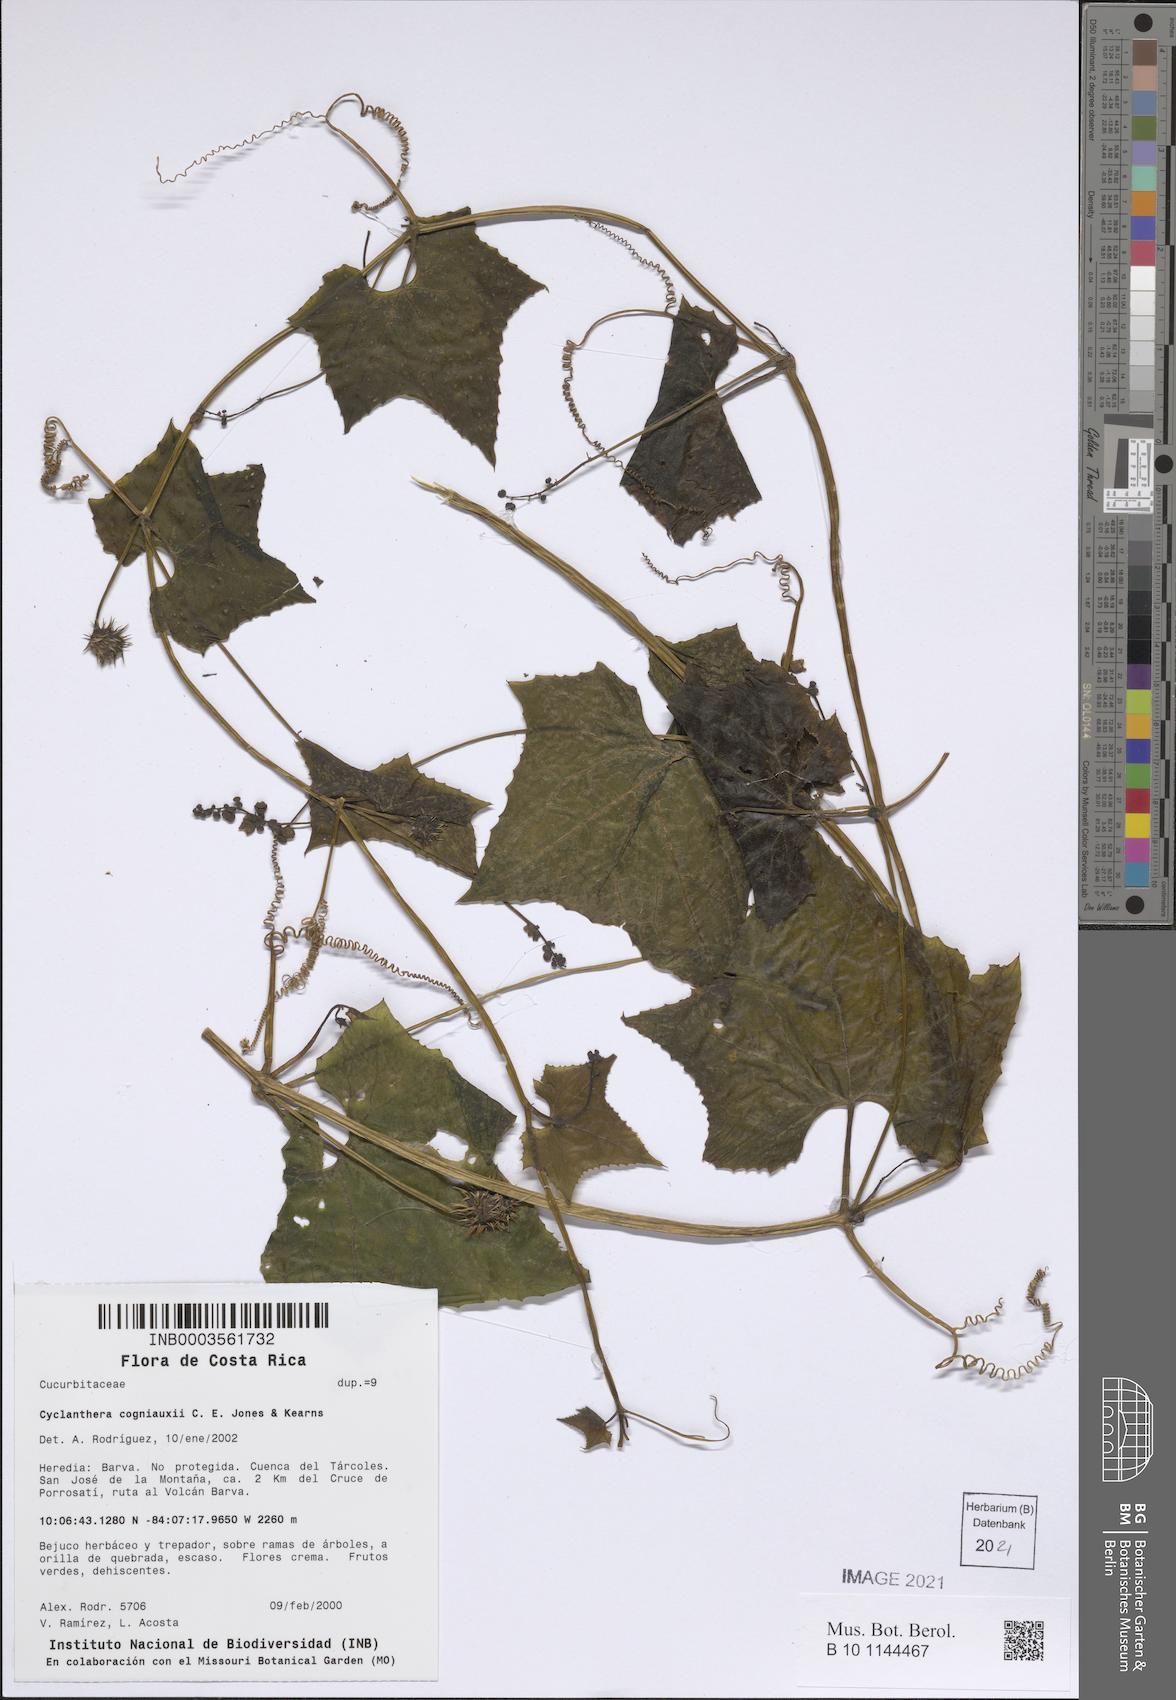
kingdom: Plantae
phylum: Tracheophyta
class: Magnoliopsida
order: Cucurbitales
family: Cucurbitaceae
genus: Cyclanthera
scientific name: Cyclanthera cogniauxii
